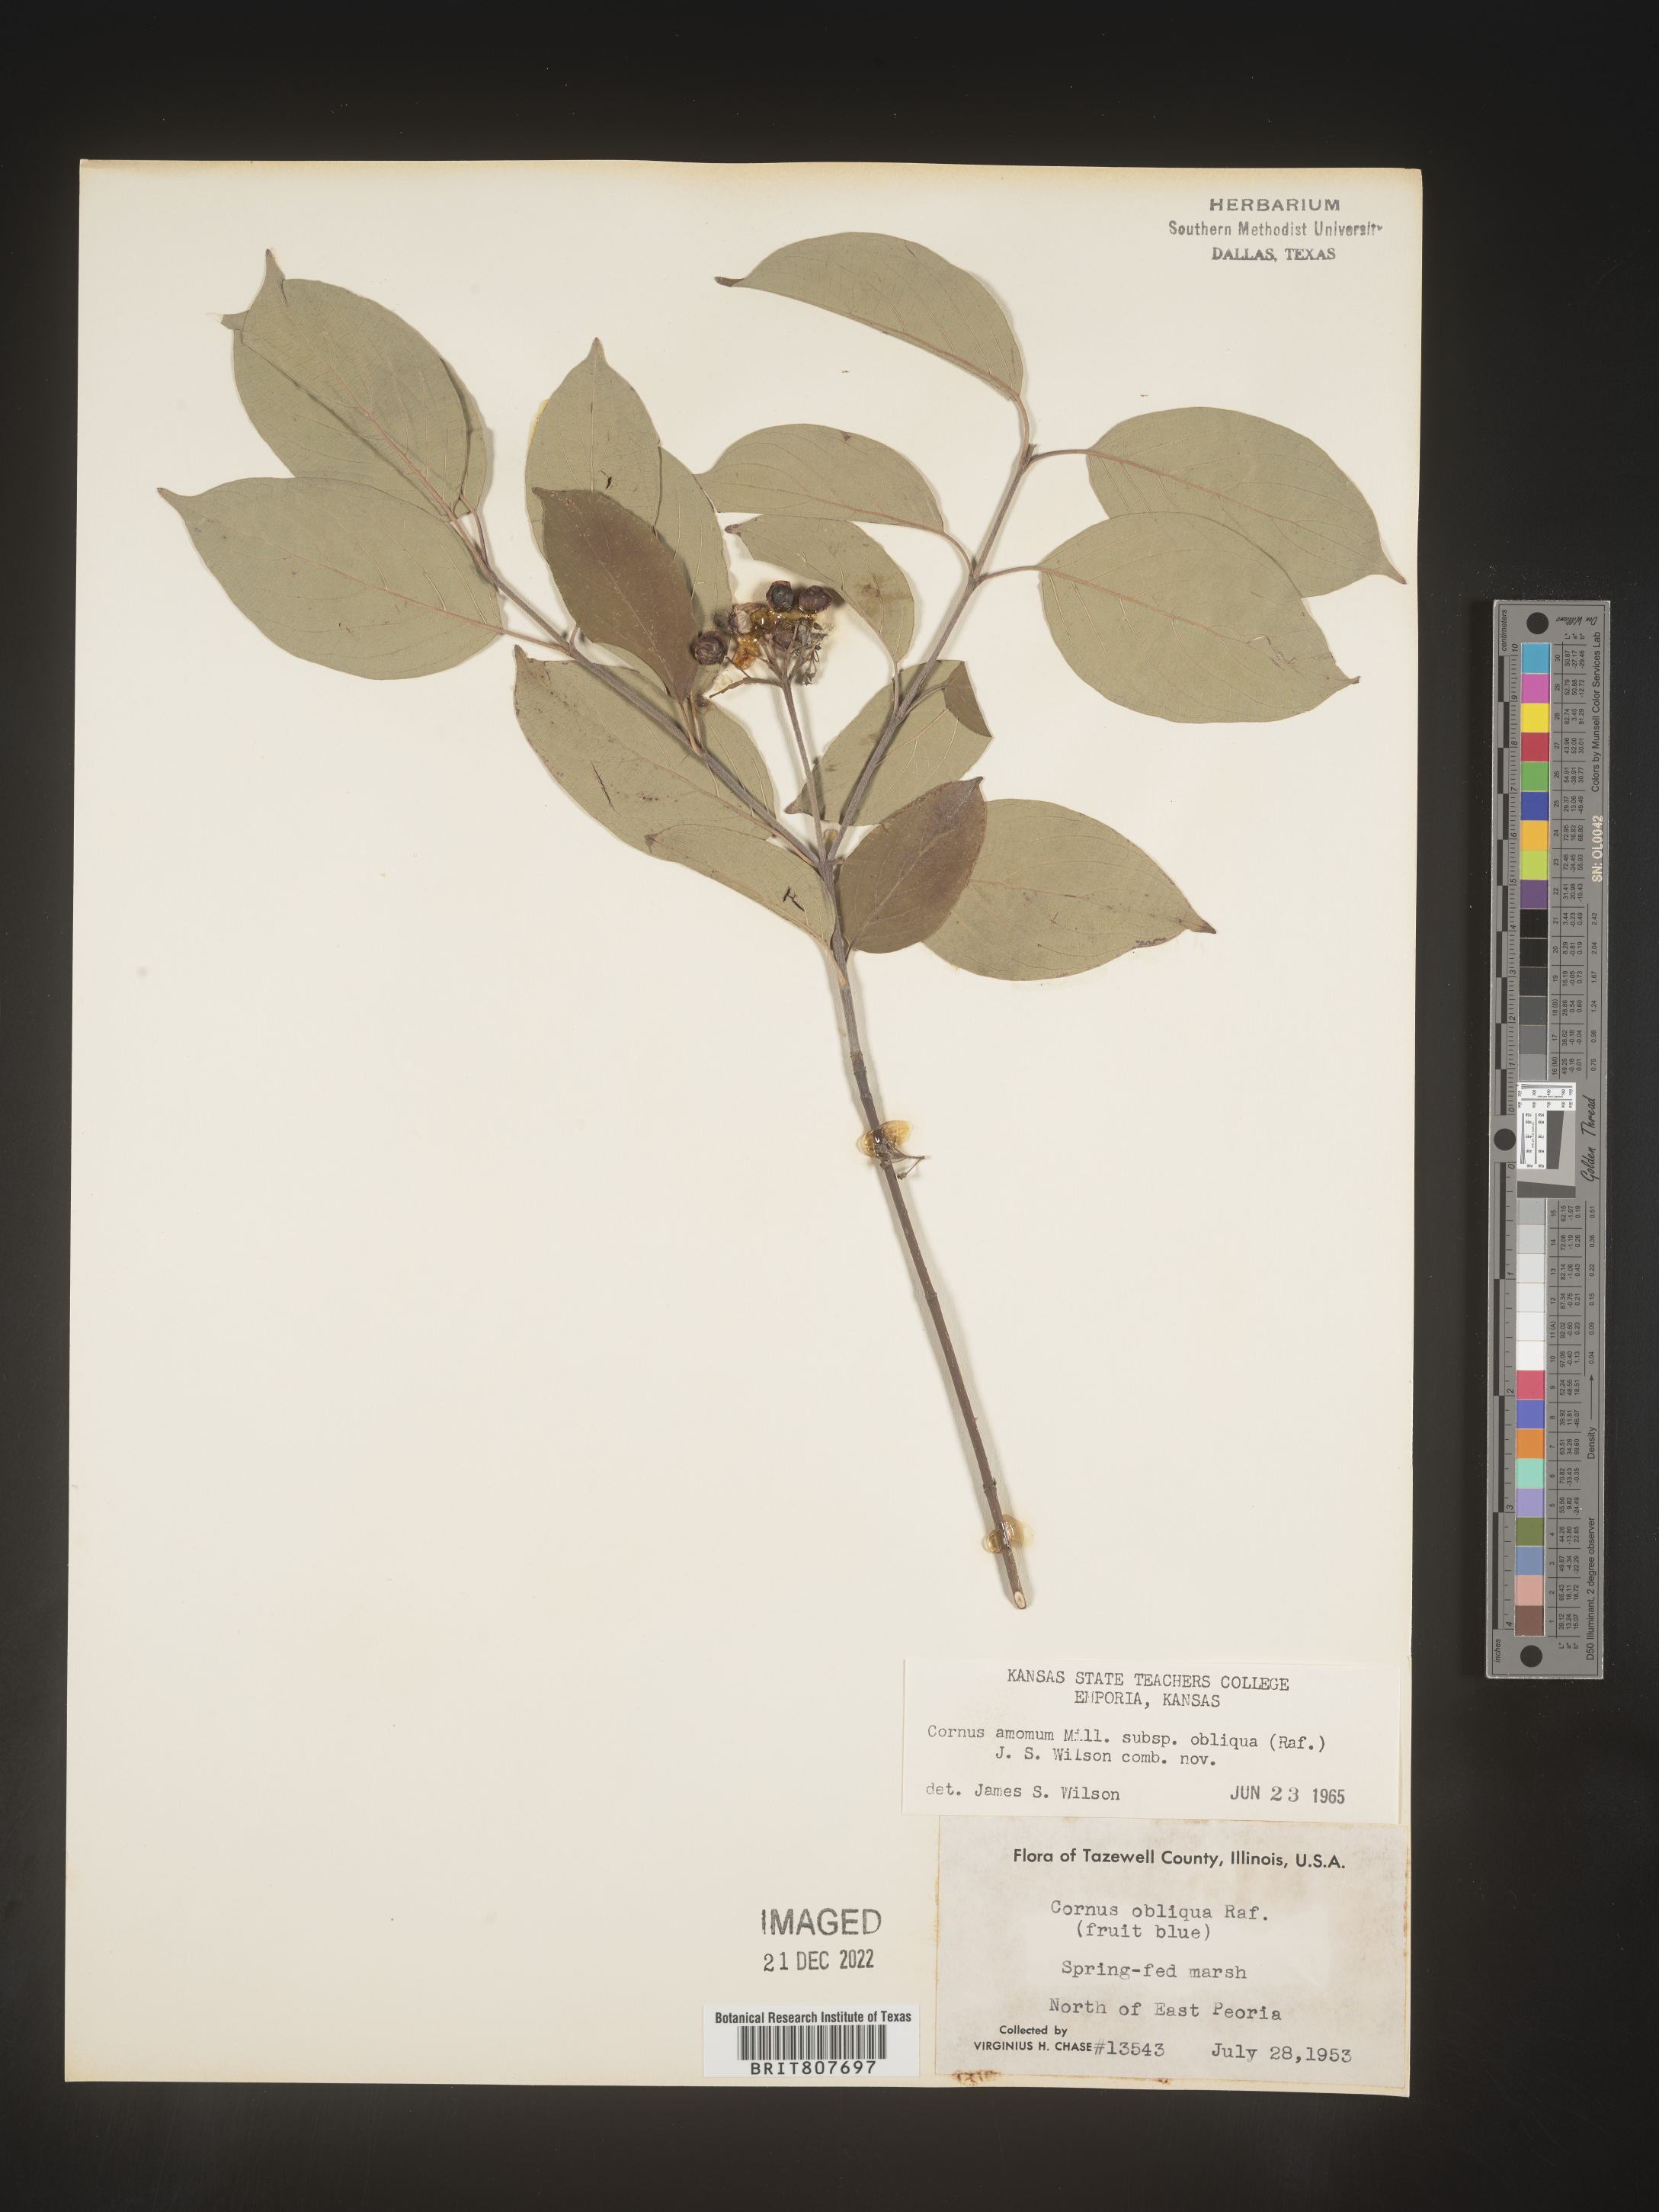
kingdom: Plantae
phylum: Tracheophyta
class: Magnoliopsida
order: Cornales
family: Cornaceae
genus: Cornus
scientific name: Cornus obliqua
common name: Pale dogwood
